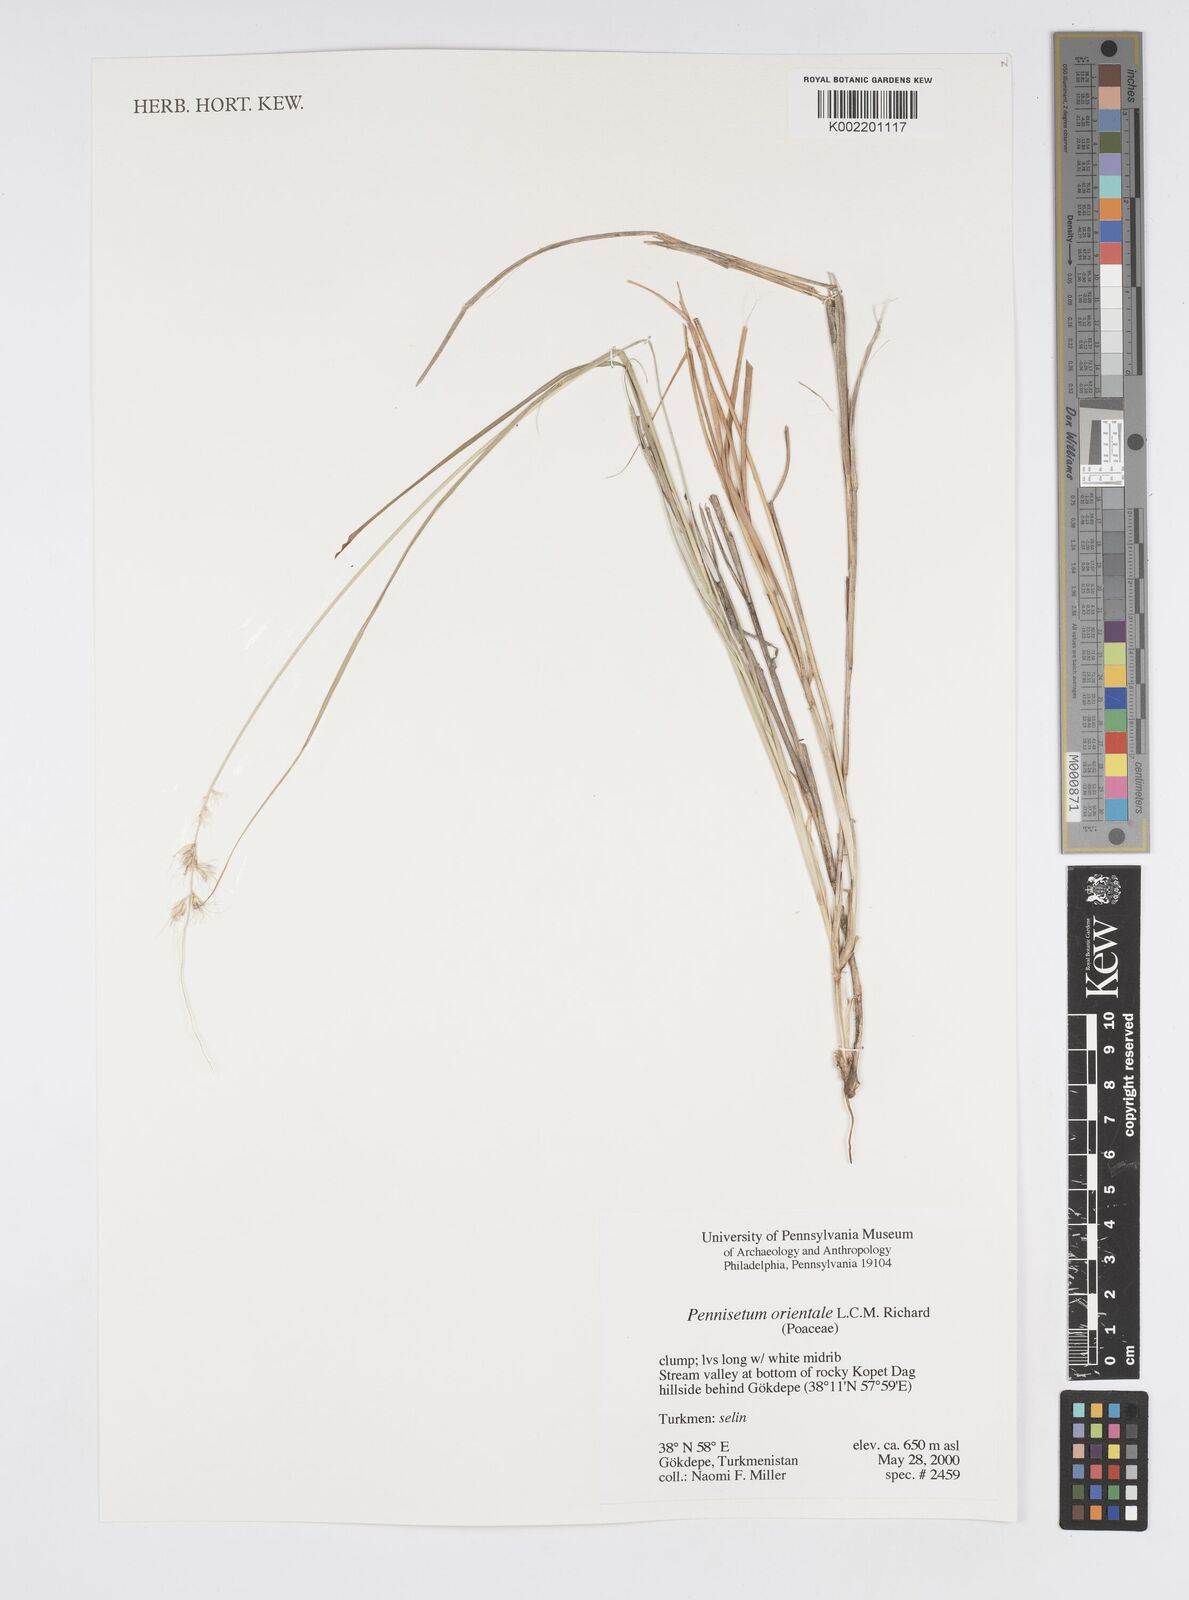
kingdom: Plantae
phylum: Tracheophyta
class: Liliopsida
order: Poales
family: Poaceae
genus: Cenchrus
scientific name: Cenchrus orientalis
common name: Oriental fountain grass
